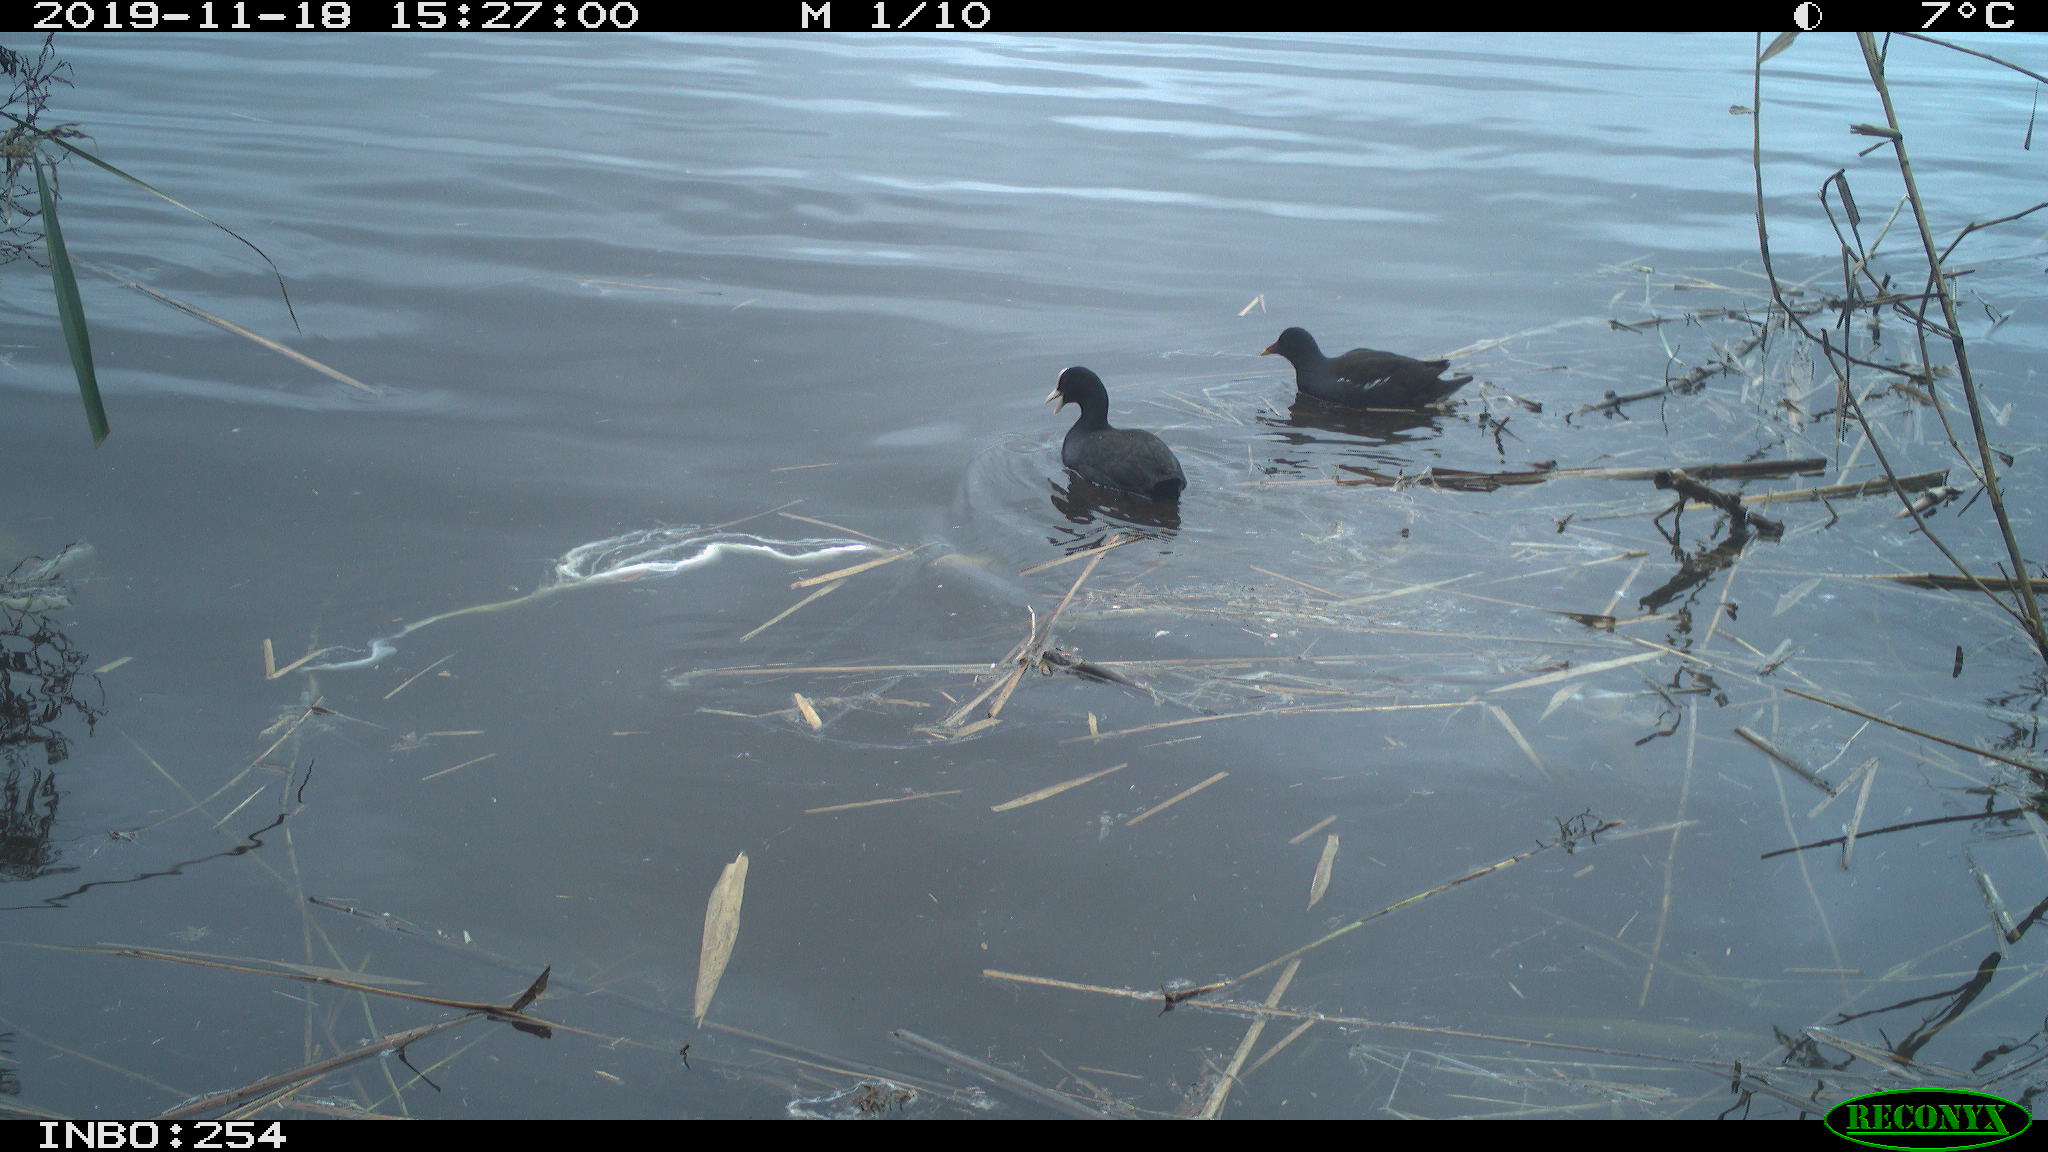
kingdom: Animalia
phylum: Chordata
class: Aves
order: Gruiformes
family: Rallidae
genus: Fulica
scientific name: Fulica atra
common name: Eurasian coot
